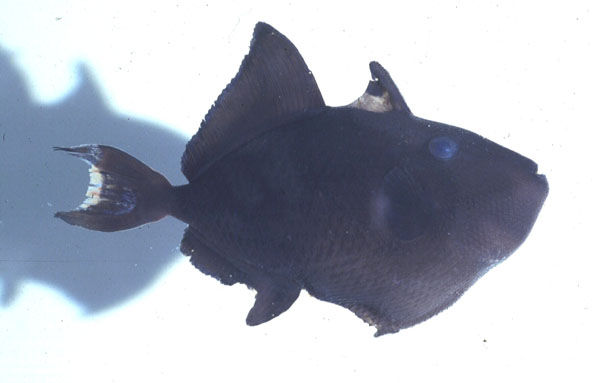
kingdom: Animalia
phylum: Chordata
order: Tetraodontiformes
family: Balistidae
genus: Odonus
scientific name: Odonus niger
